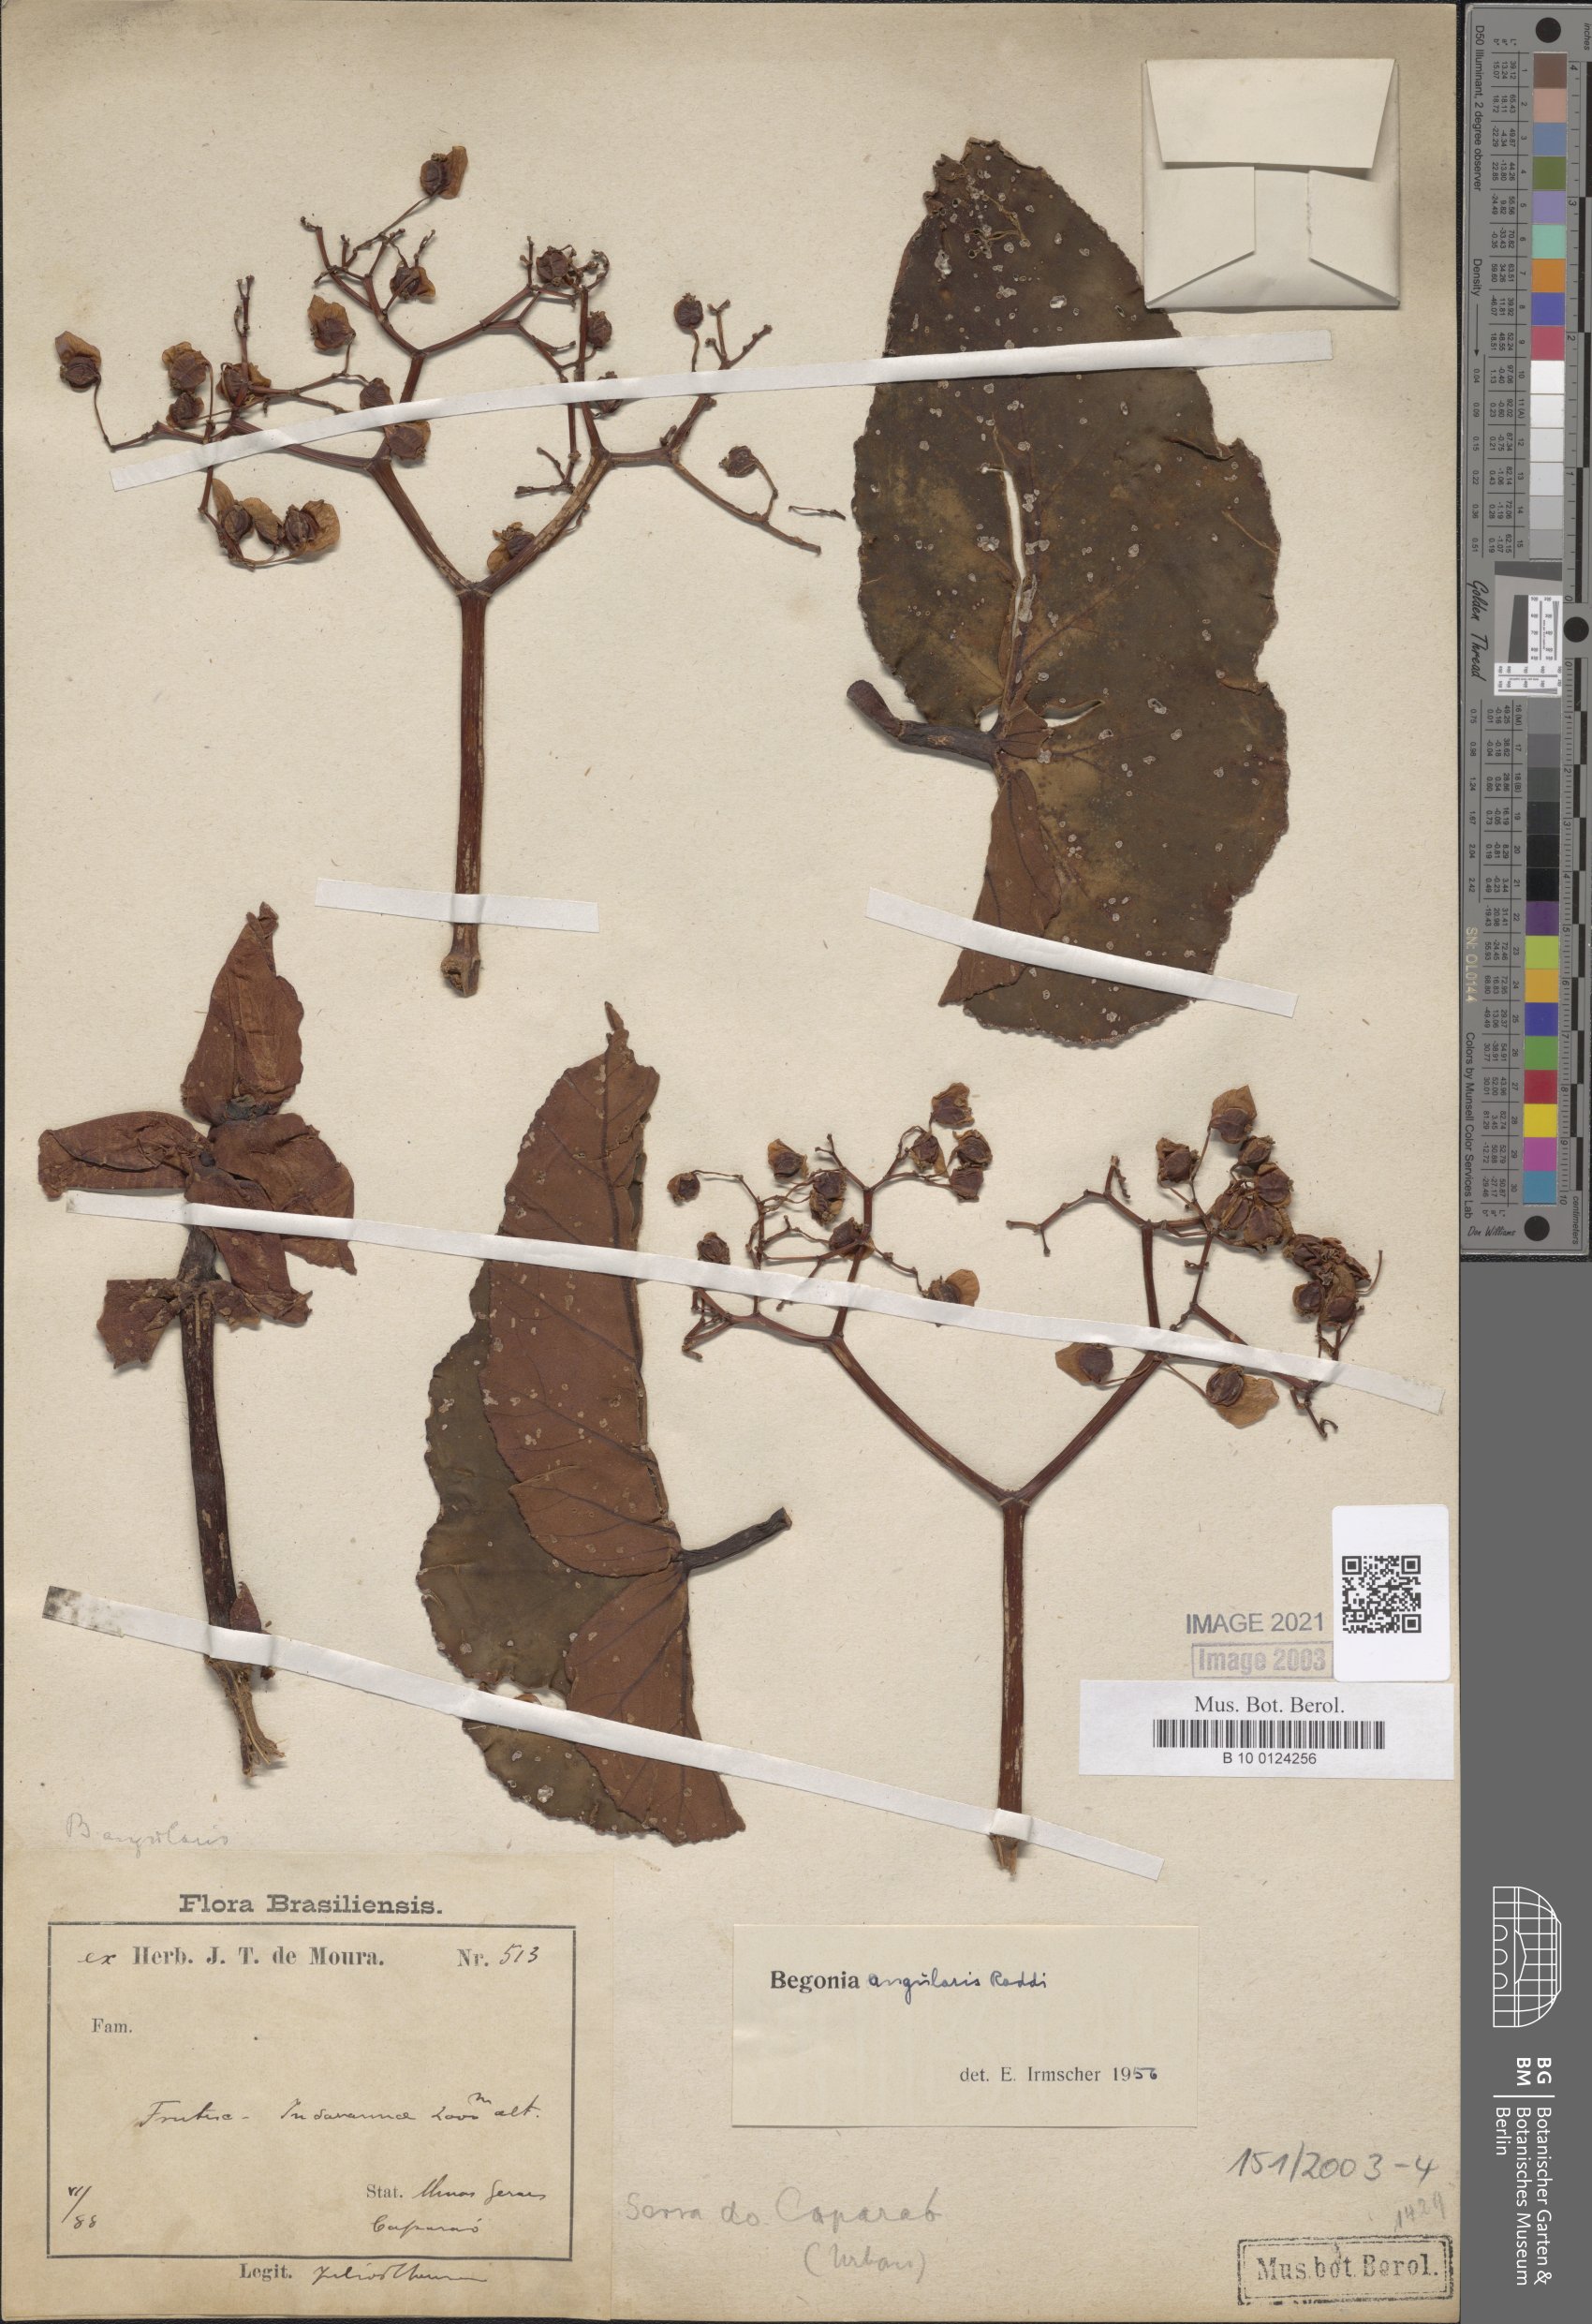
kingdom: Plantae
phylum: Tracheophyta
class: Magnoliopsida
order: Cucurbitales
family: Begoniaceae
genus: Begonia
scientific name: Begonia angularis
